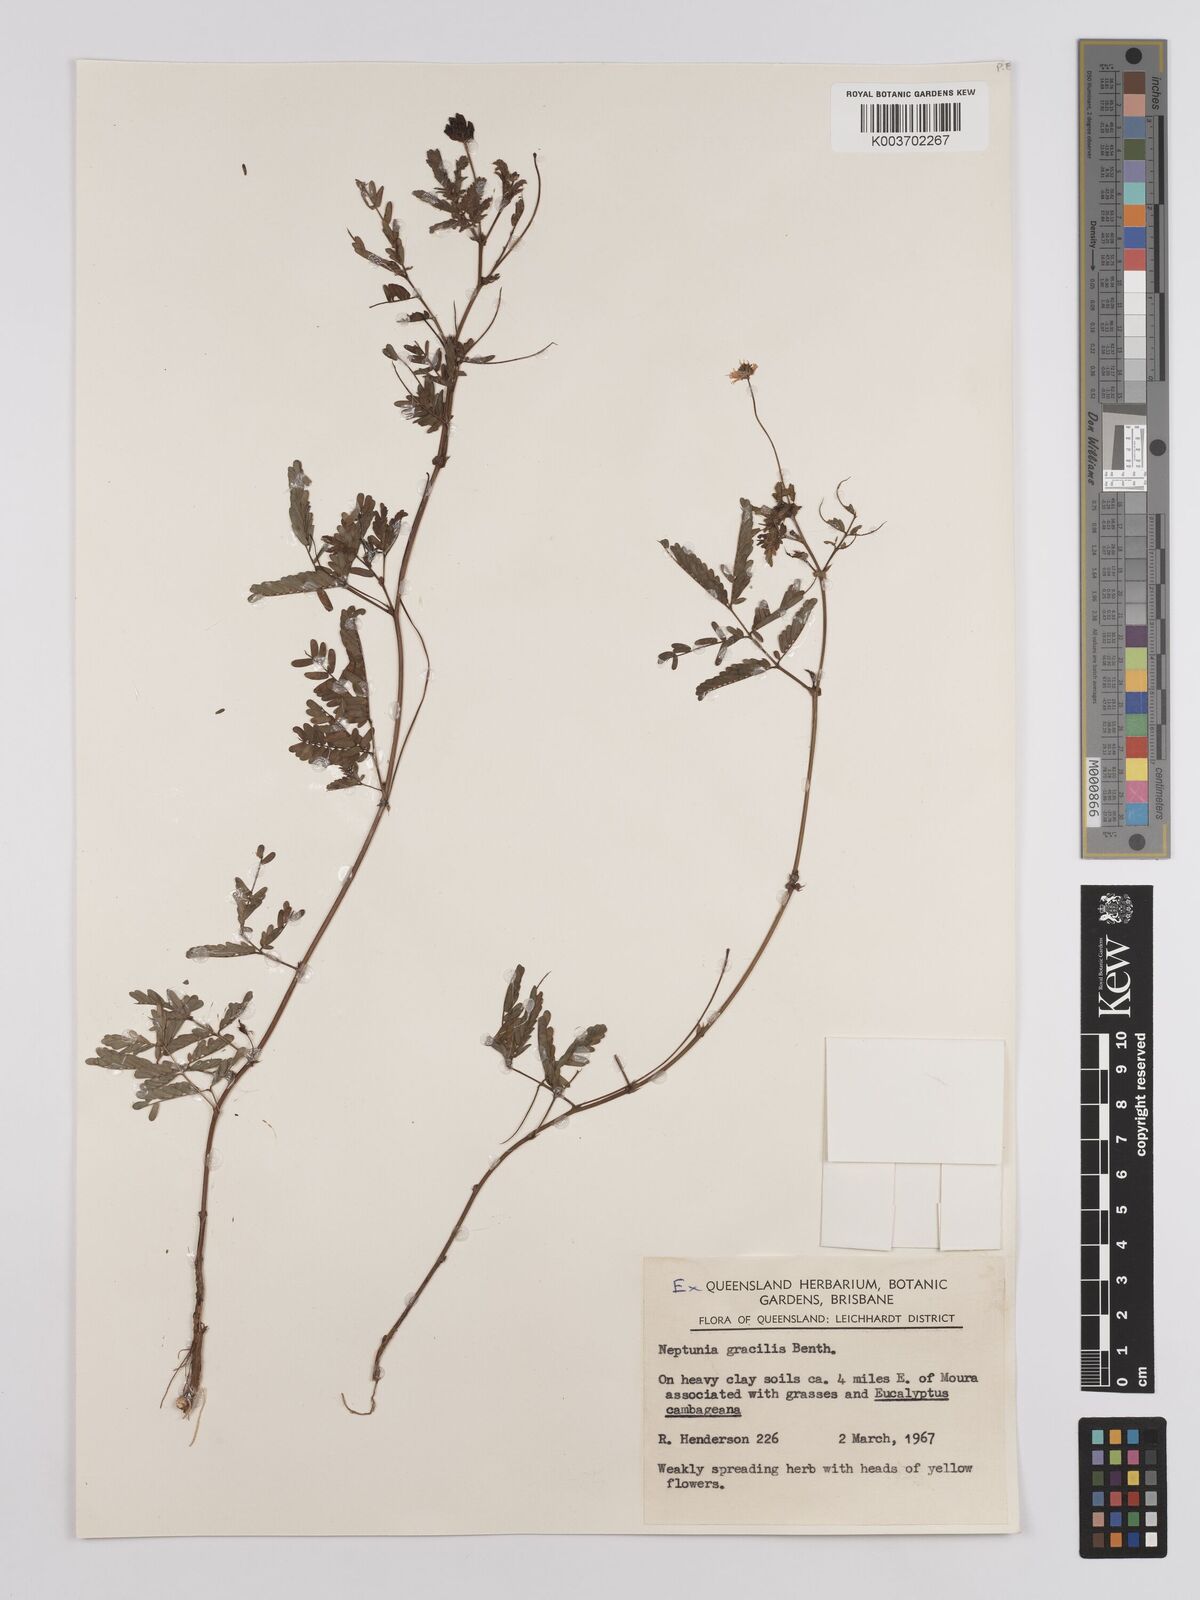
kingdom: Plantae
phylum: Tracheophyta
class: Magnoliopsida
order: Fabales
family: Fabaceae
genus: Neptunia
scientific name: Neptunia gracilis
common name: Sensitive-plant
